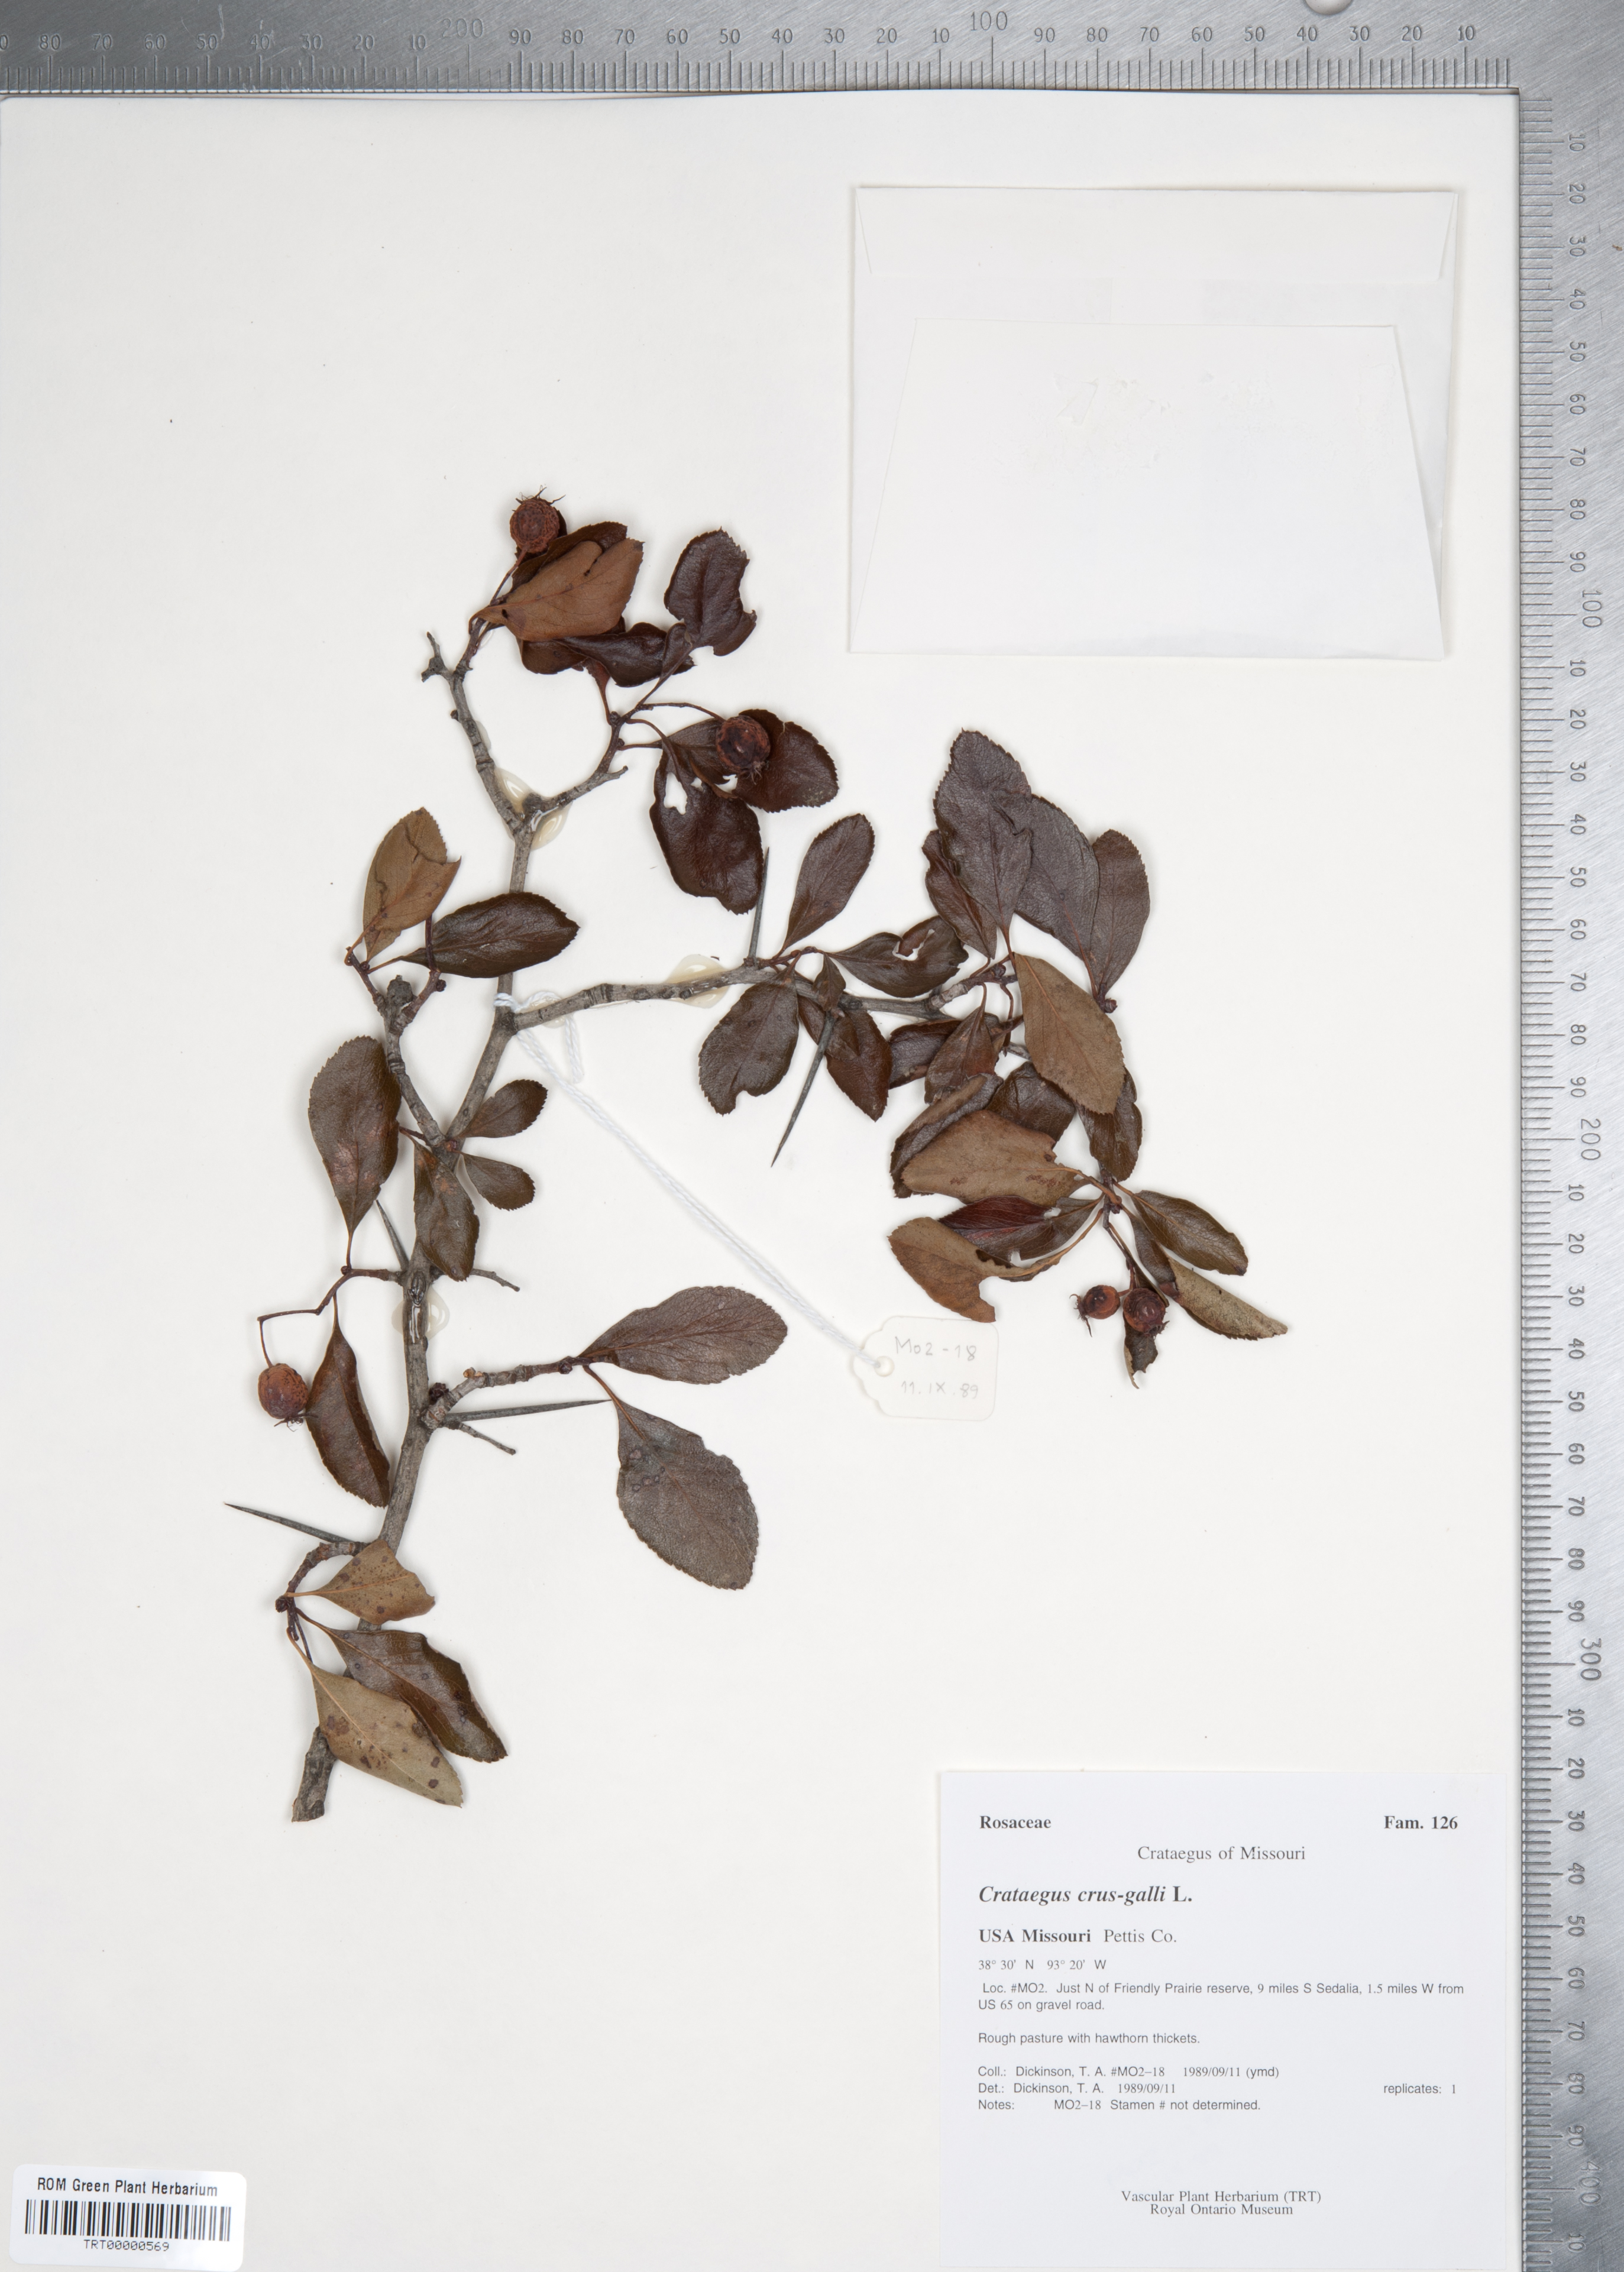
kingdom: Plantae
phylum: Tracheophyta
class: Magnoliopsida
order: Rosales
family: Rosaceae
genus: Crataegus
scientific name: Crataegus crus-galli
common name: Cockspurthorn
